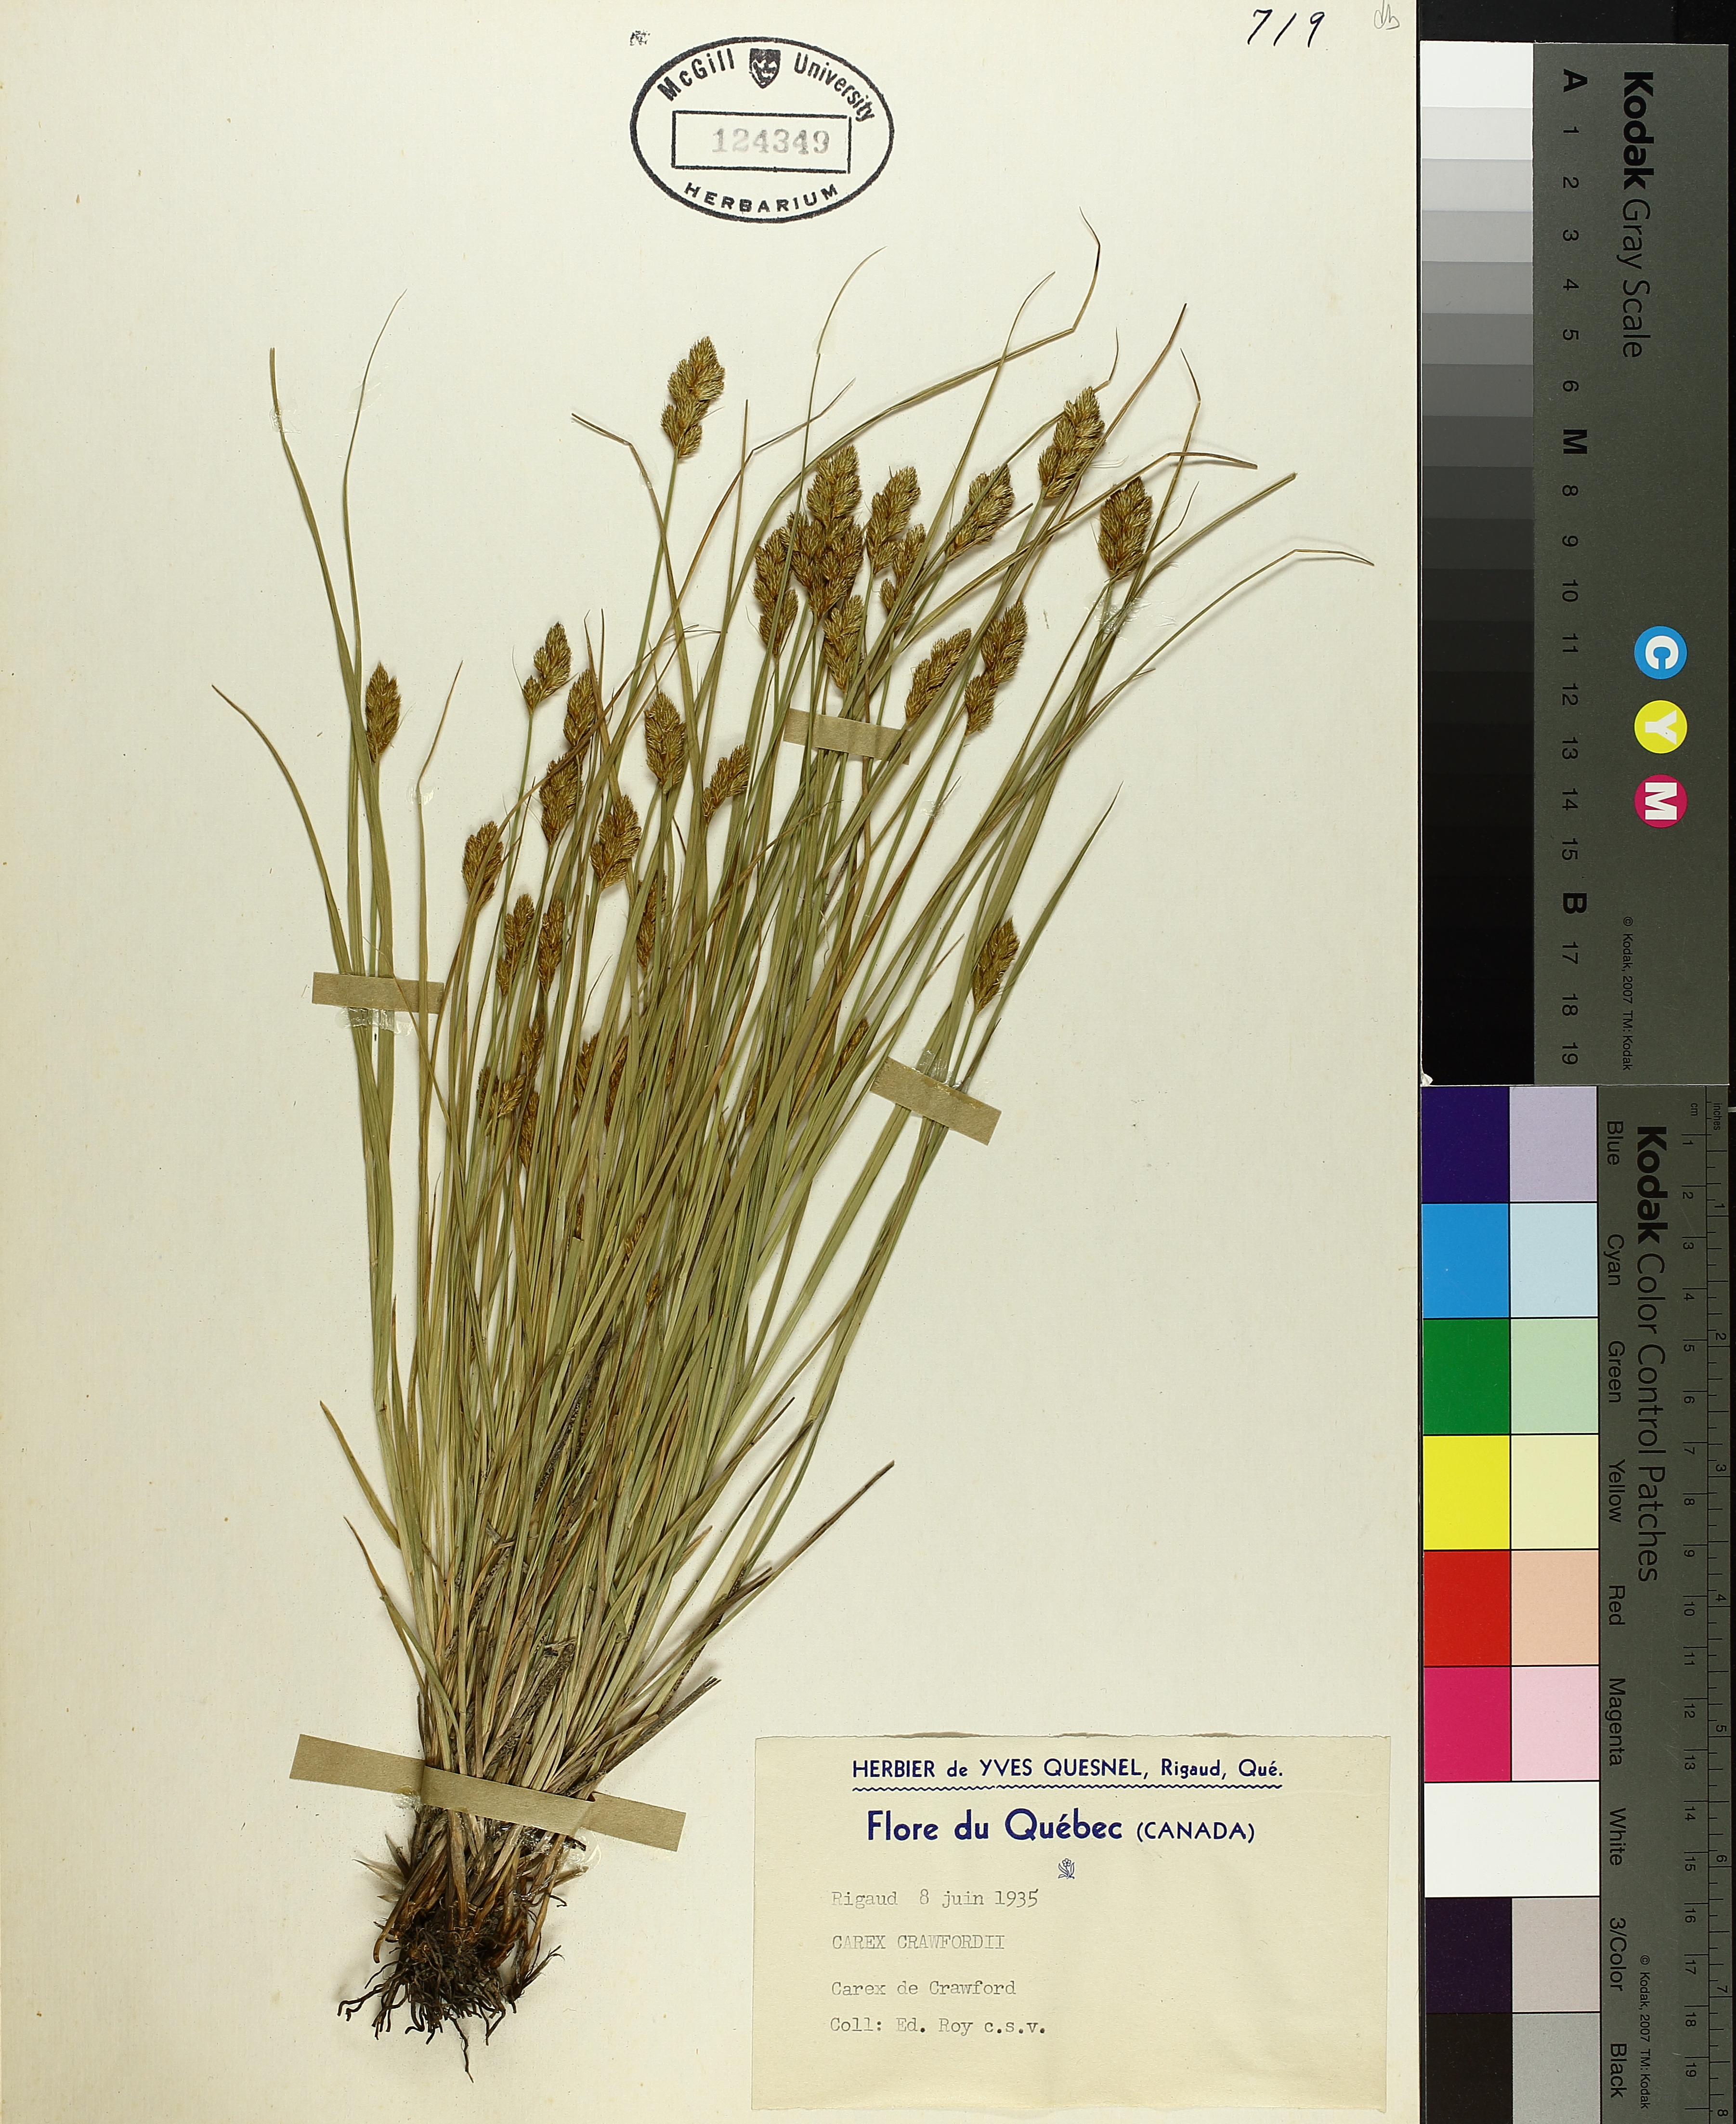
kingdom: Plantae
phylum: Tracheophyta
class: Liliopsida
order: Poales
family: Cyperaceae
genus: Carex
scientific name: Carex crawfordii
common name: Crawford's sedge
